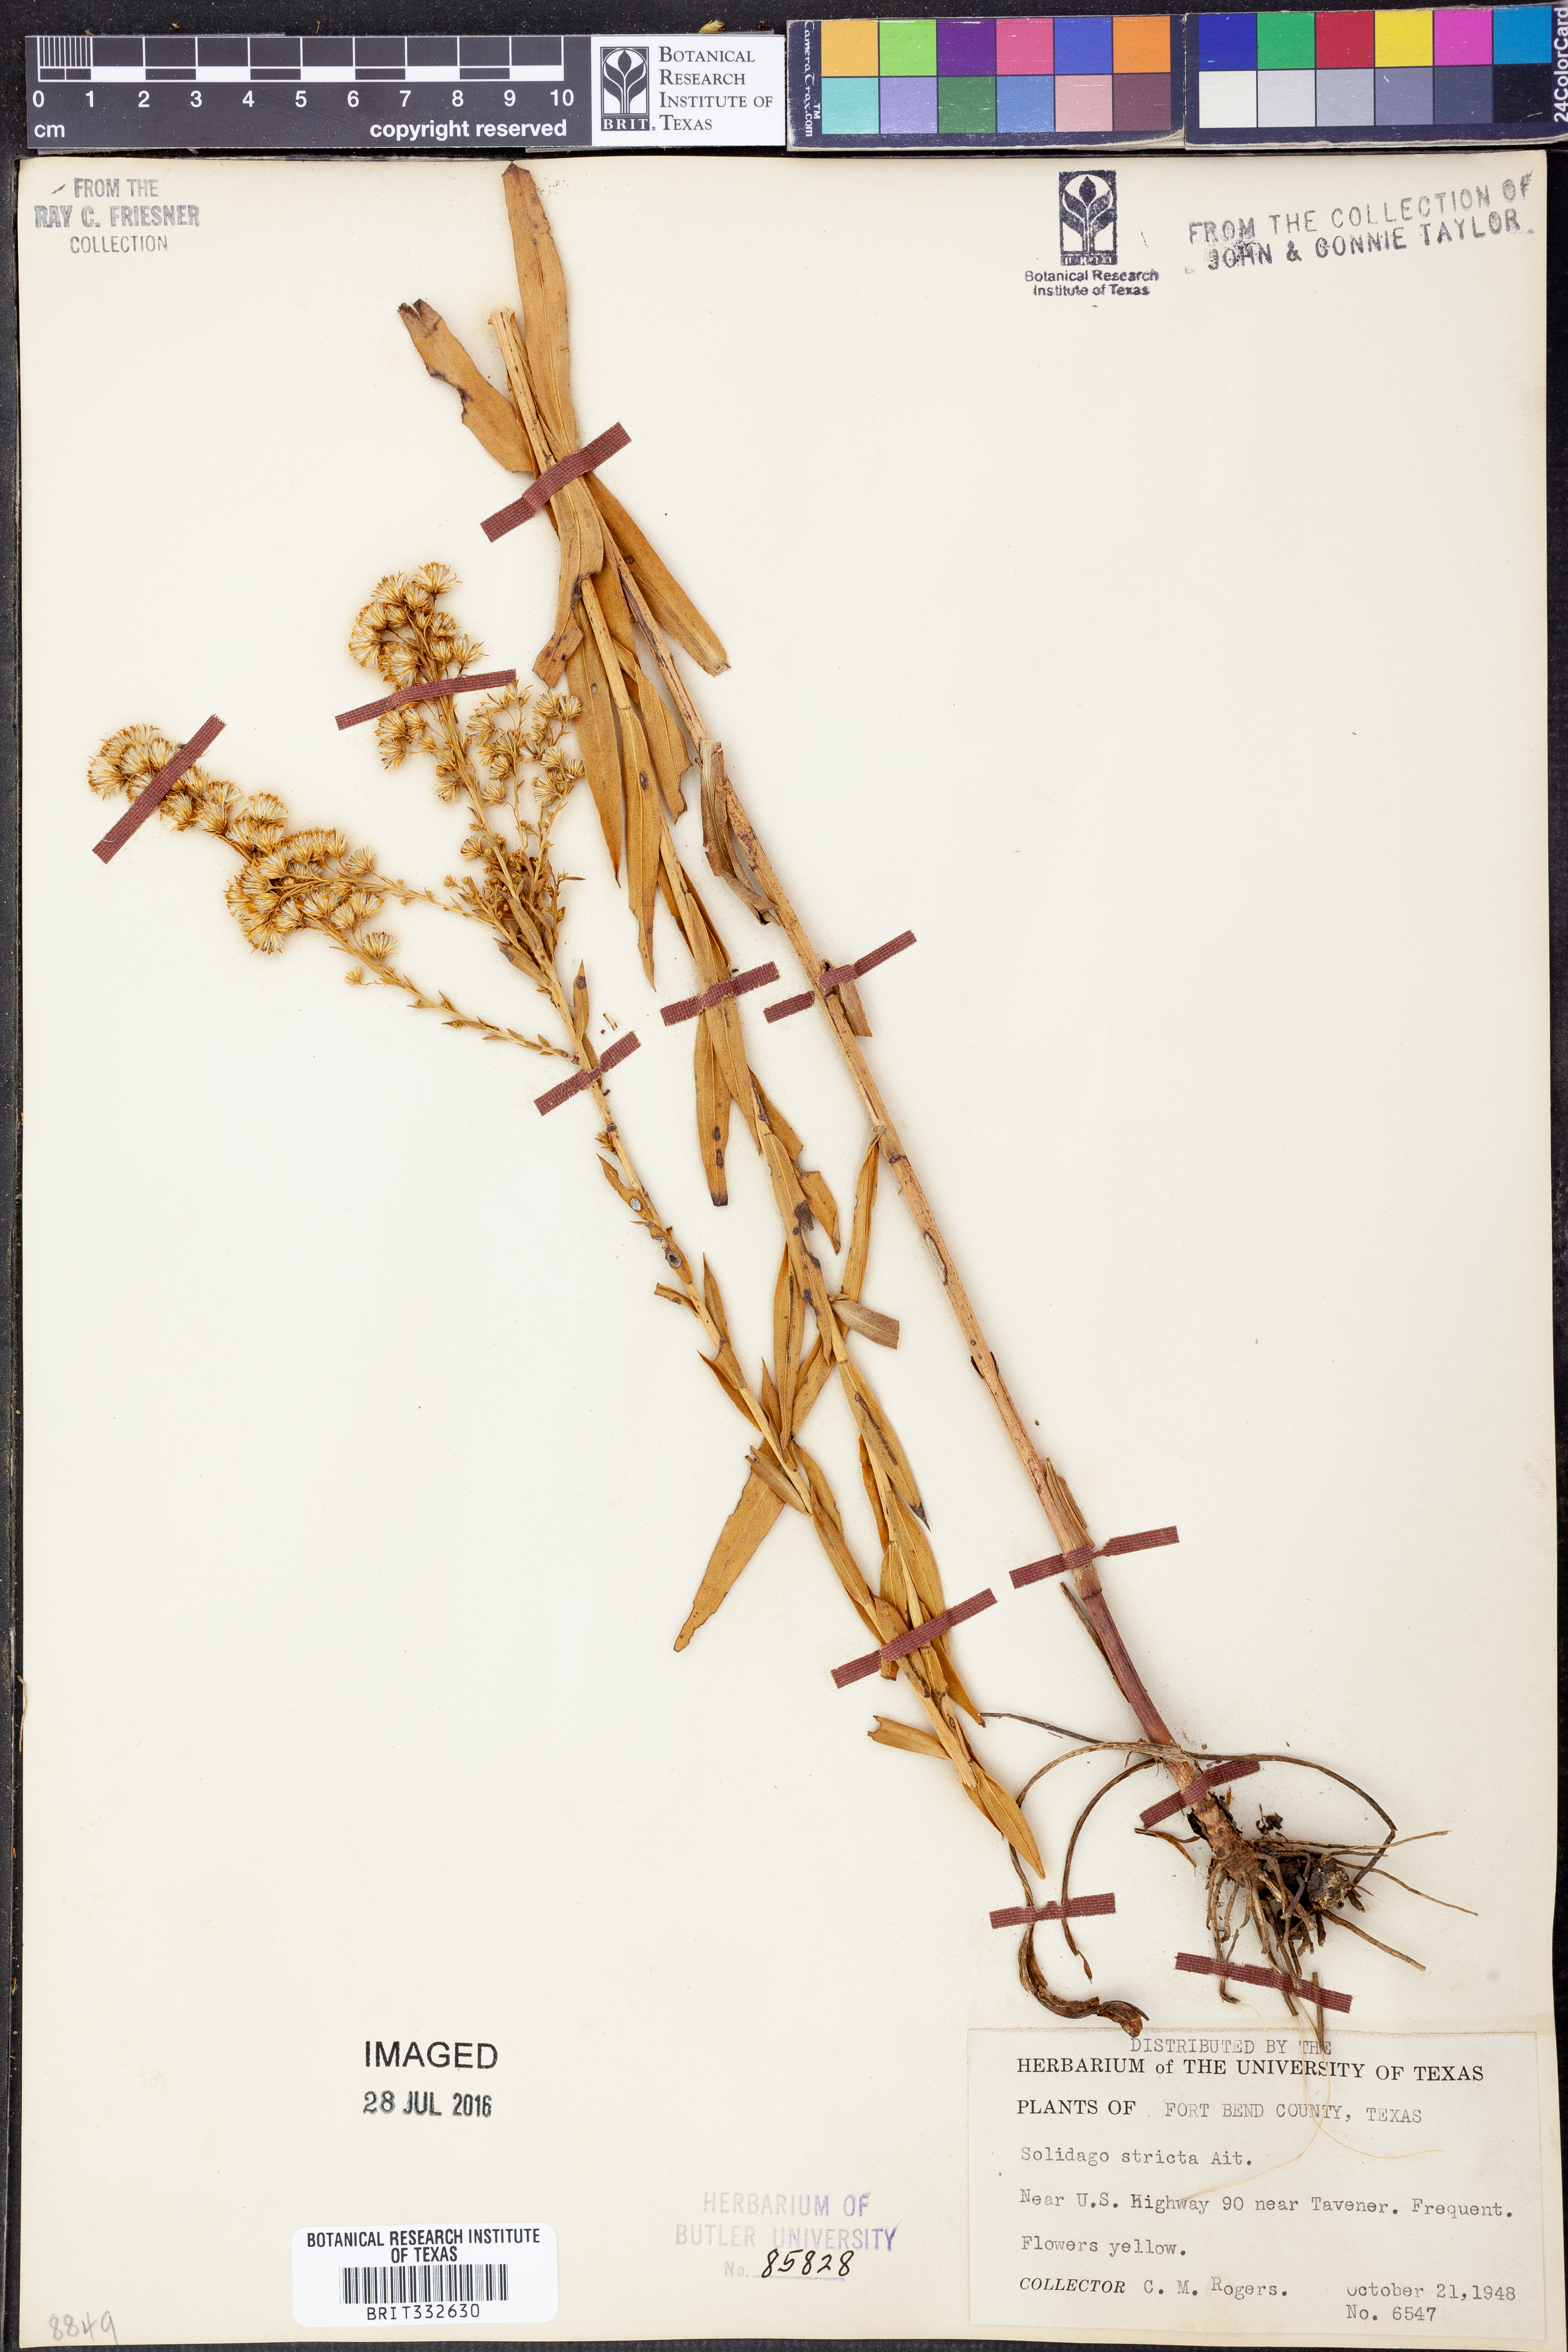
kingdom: Plantae
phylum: Tracheophyta
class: Magnoliopsida
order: Asterales
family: Asteraceae
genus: Solidago
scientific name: Solidago stricta
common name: Pine barren bog goldenrod
